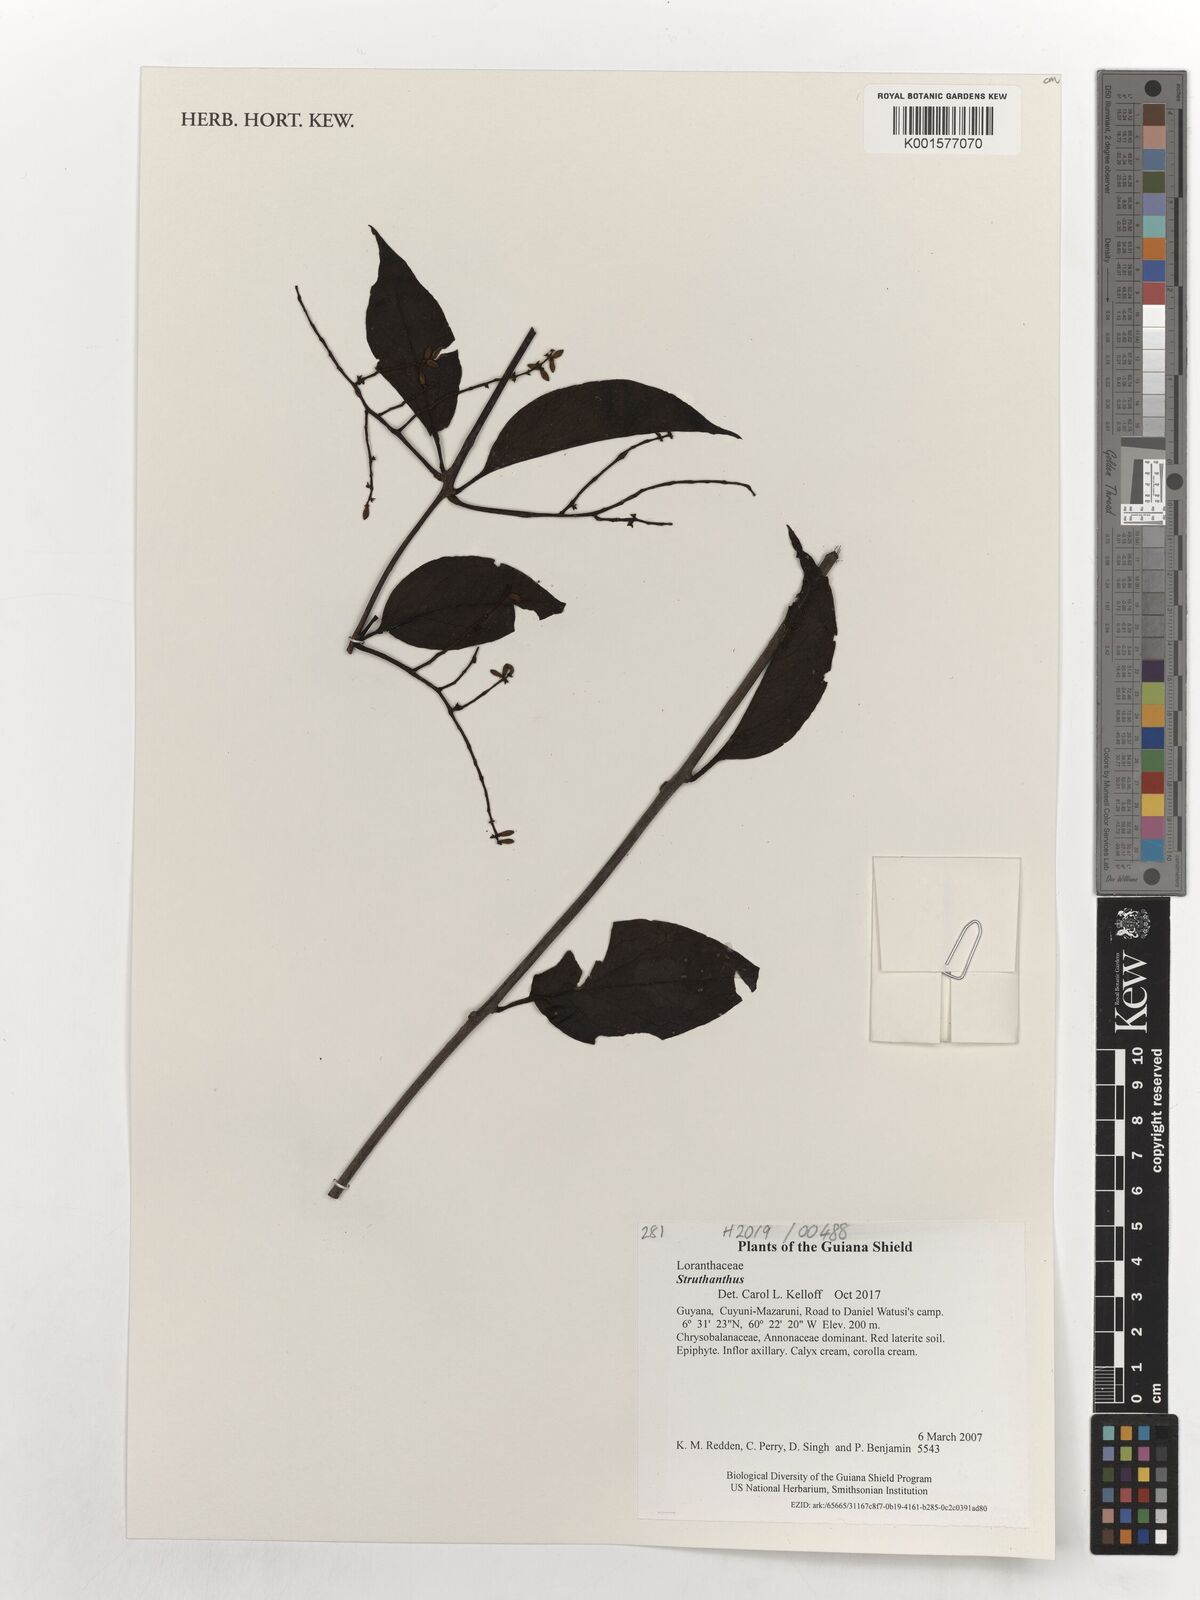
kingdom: Plantae
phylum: Tracheophyta
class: Magnoliopsida
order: Santalales
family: Loranthaceae
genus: Struthanthus
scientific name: Struthanthus
